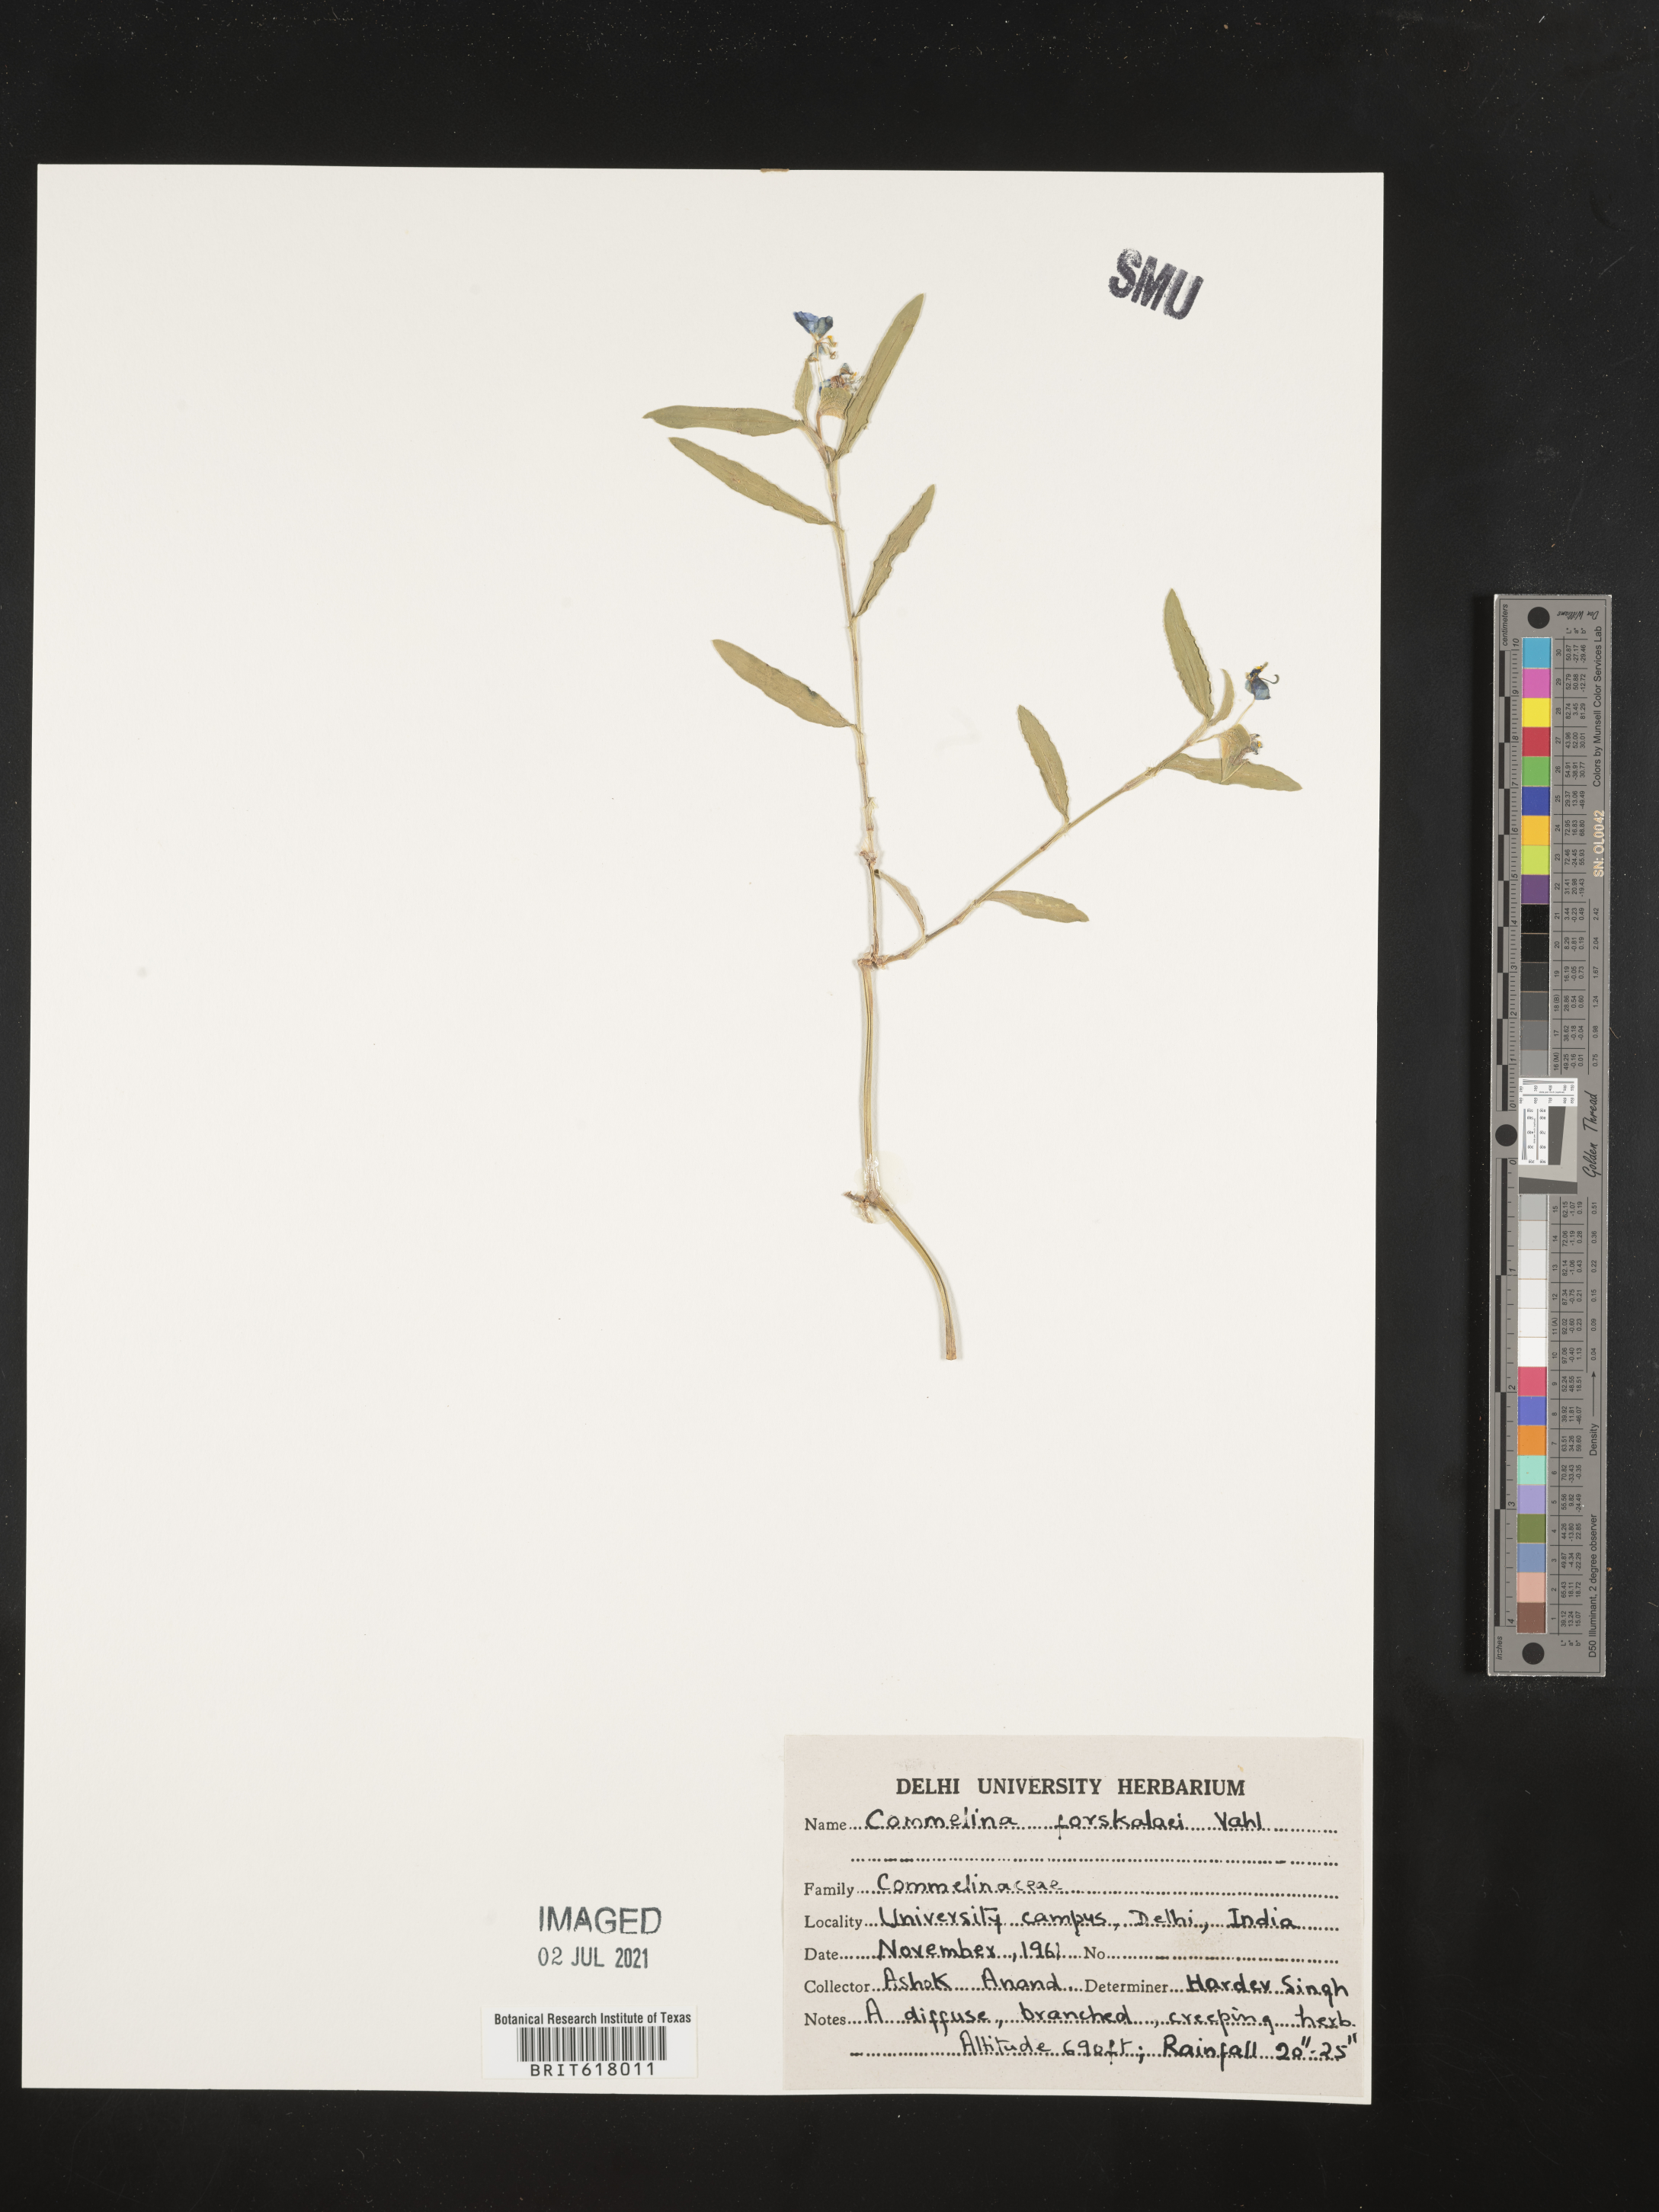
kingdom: Plantae
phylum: Tracheophyta
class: Liliopsida
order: Commelinales
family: Commelinaceae
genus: Commelina
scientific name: Commelina forskaolii
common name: Rat's ear
